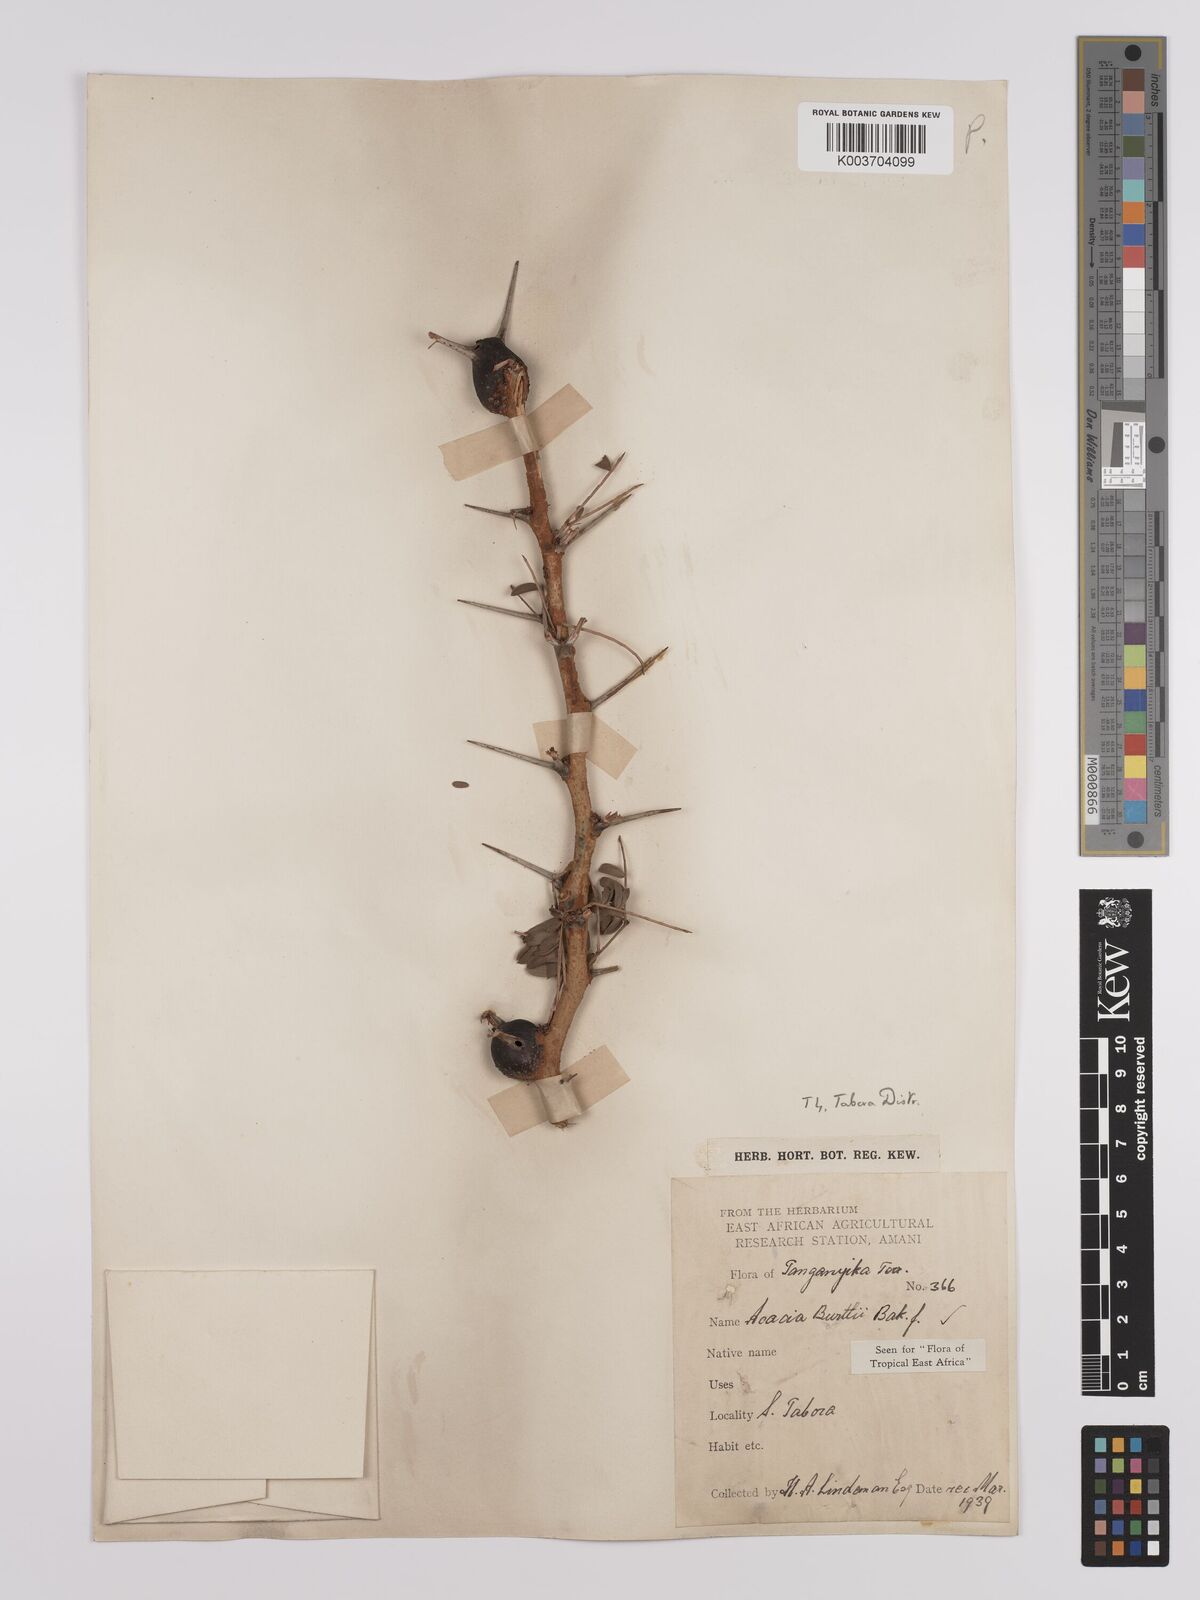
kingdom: Plantae
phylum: Tracheophyta
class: Magnoliopsida
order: Fabales
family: Fabaceae
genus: Vachellia
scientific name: Vachellia burttii
